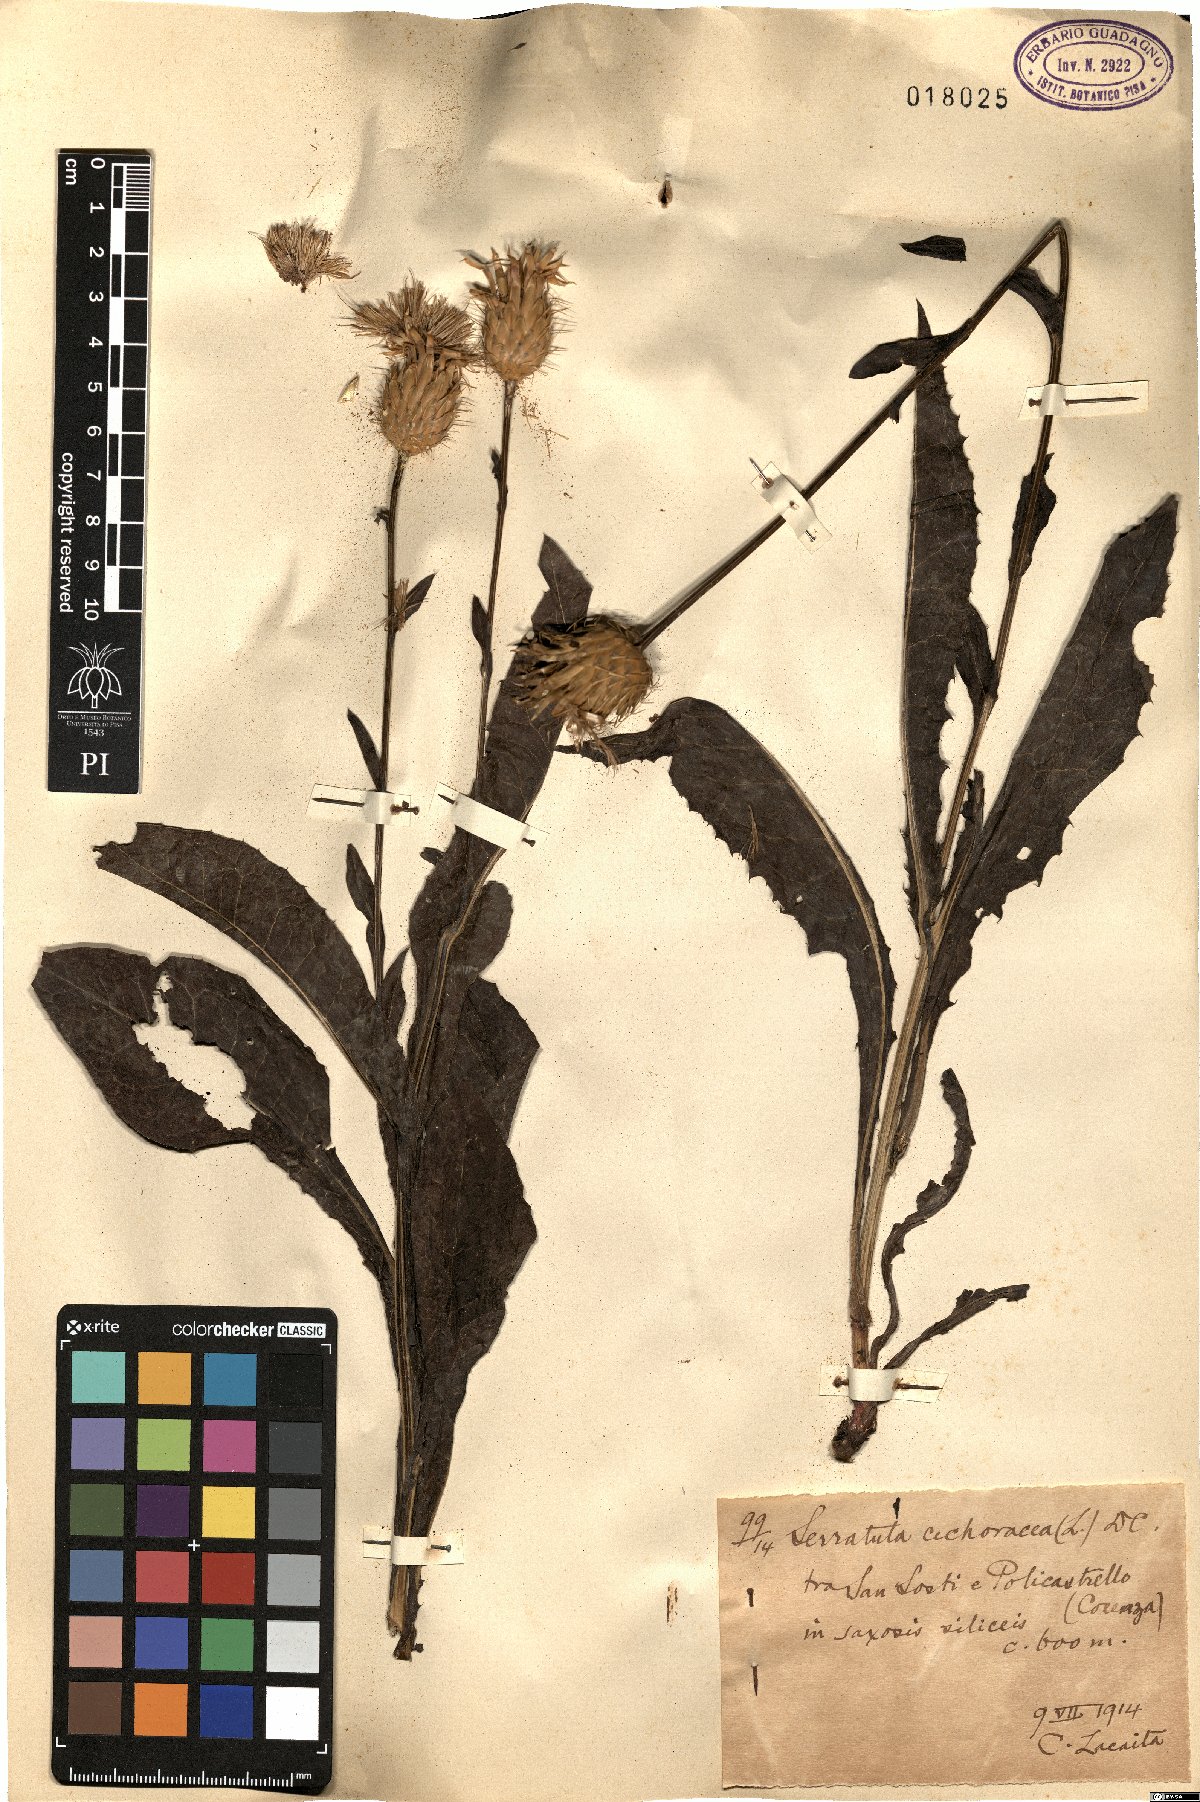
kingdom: Plantae
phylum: Tracheophyta
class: Magnoliopsida
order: Asterales
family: Asteraceae
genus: Klasea
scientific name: Klasea flavescens
